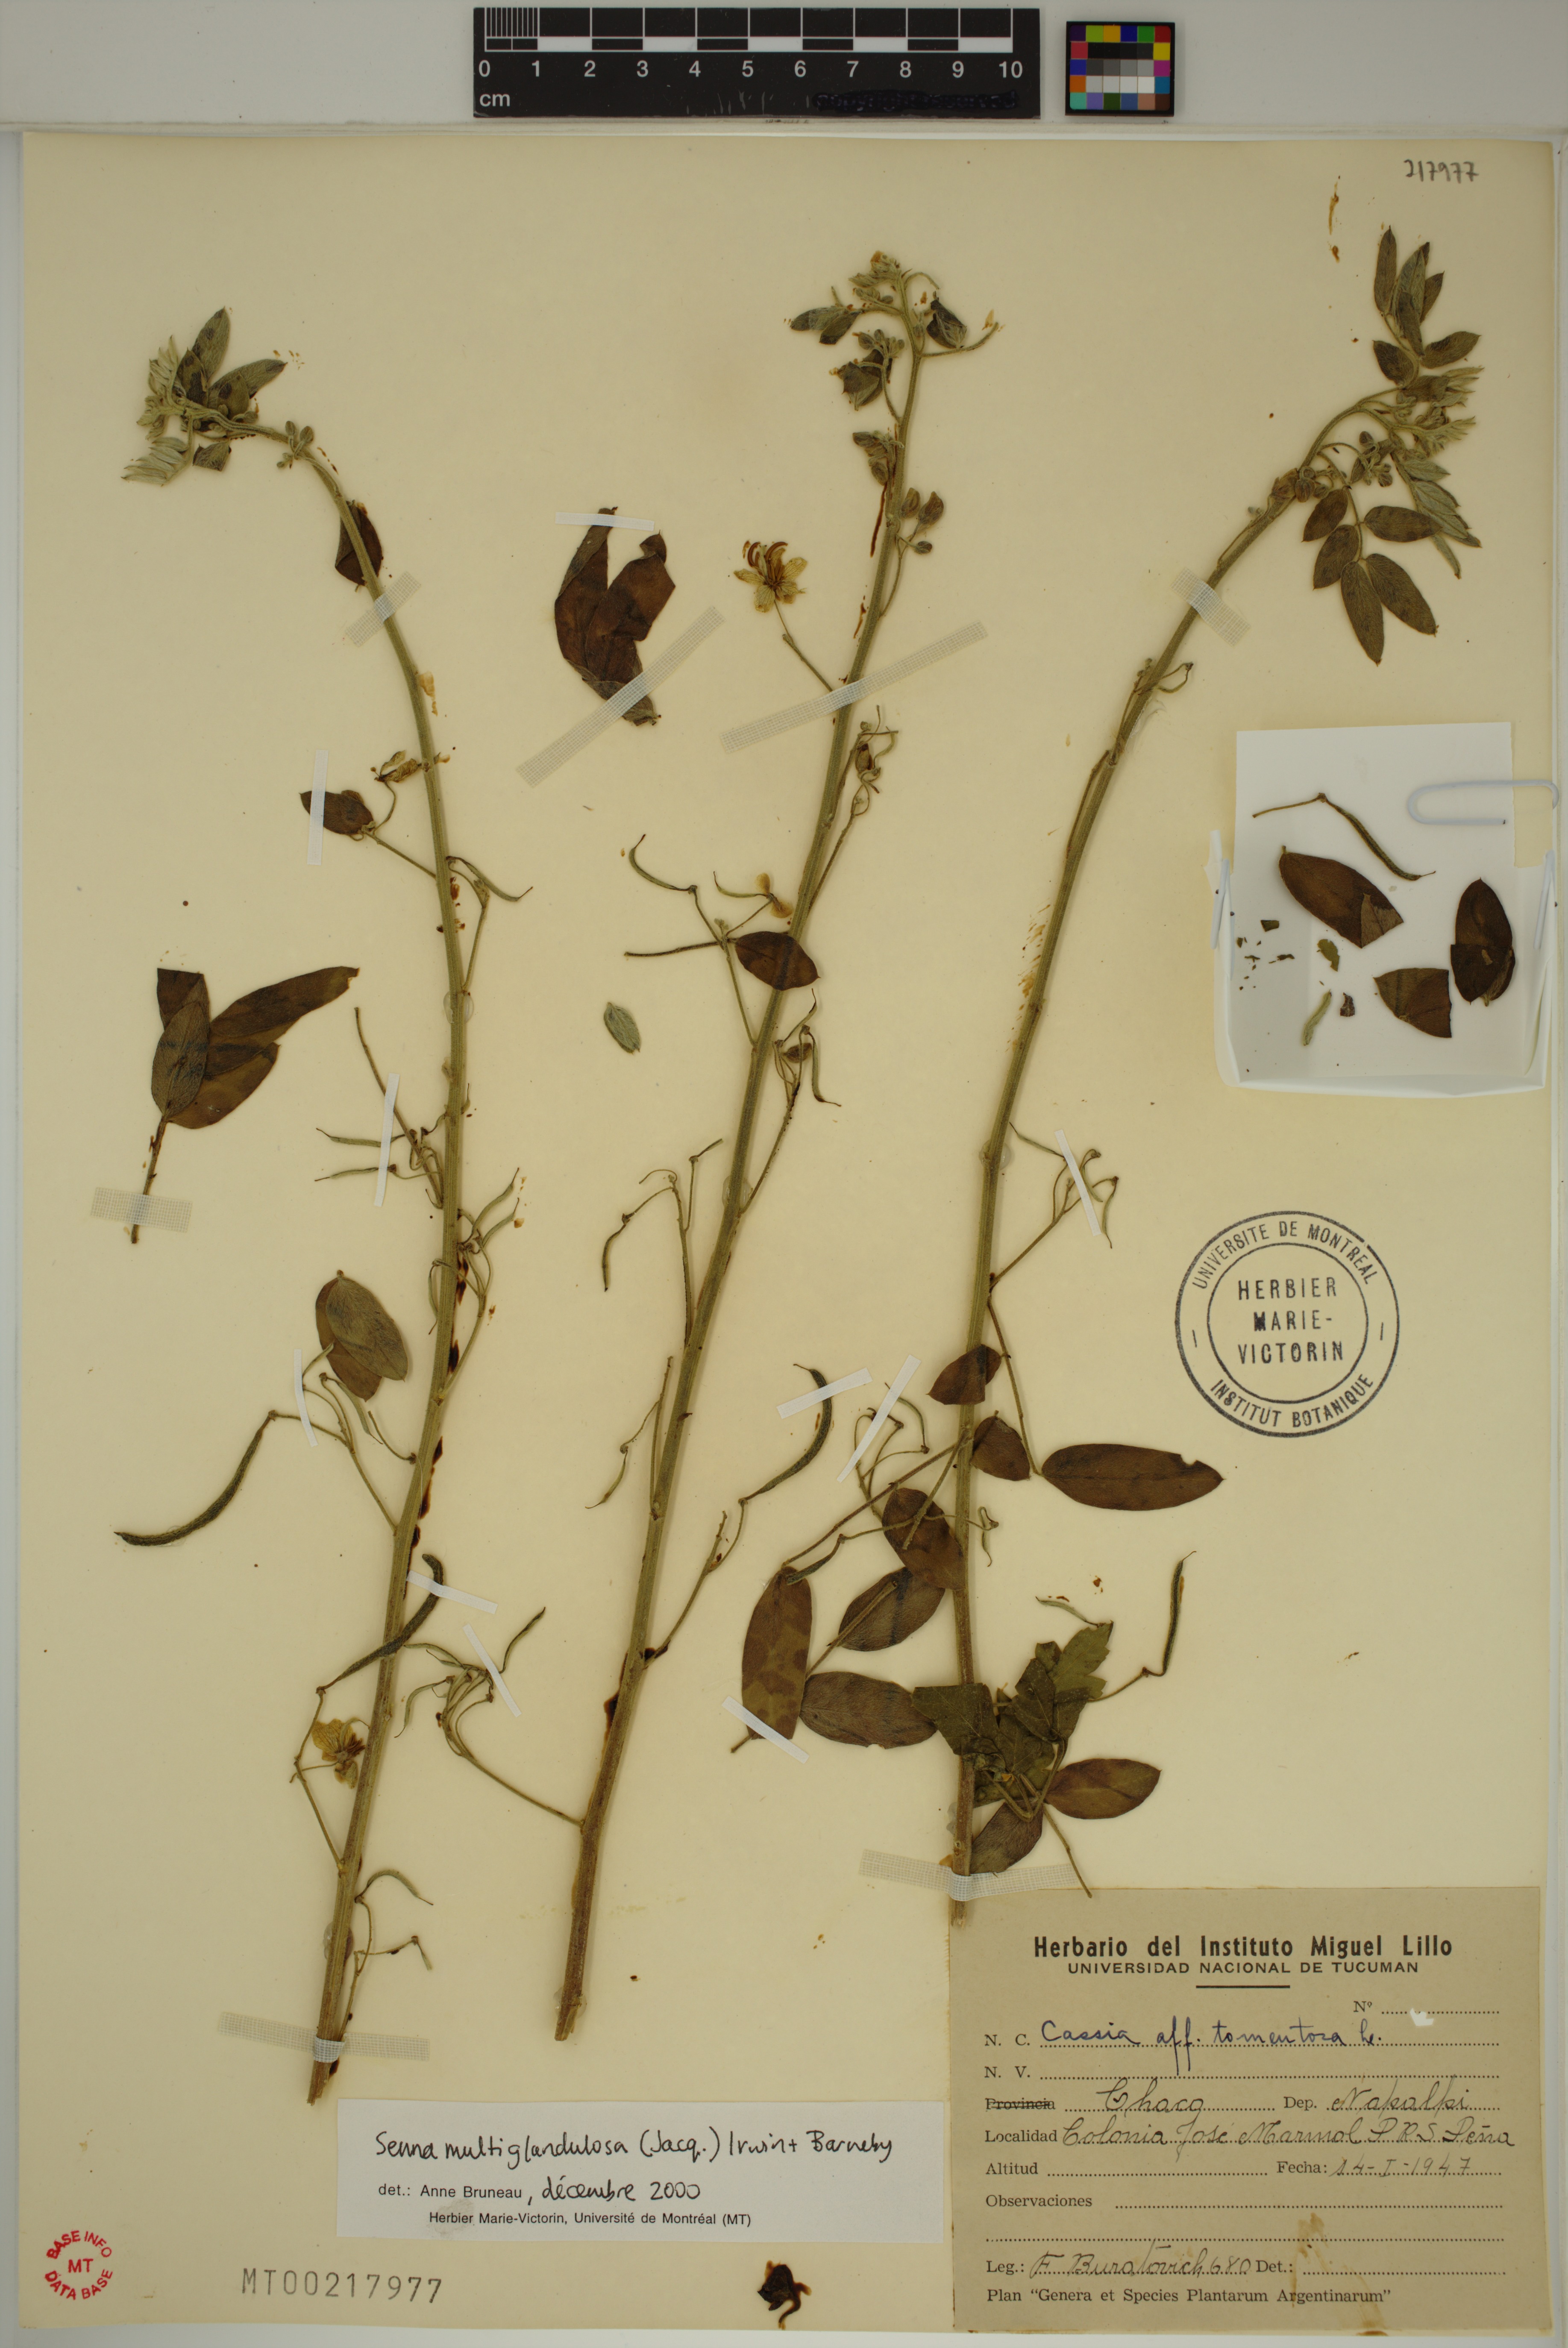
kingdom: Plantae
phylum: Tracheophyta
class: Magnoliopsida
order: Fabales
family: Fabaceae
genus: Senna
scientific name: Senna multiglandulosa
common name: Glandular senna
